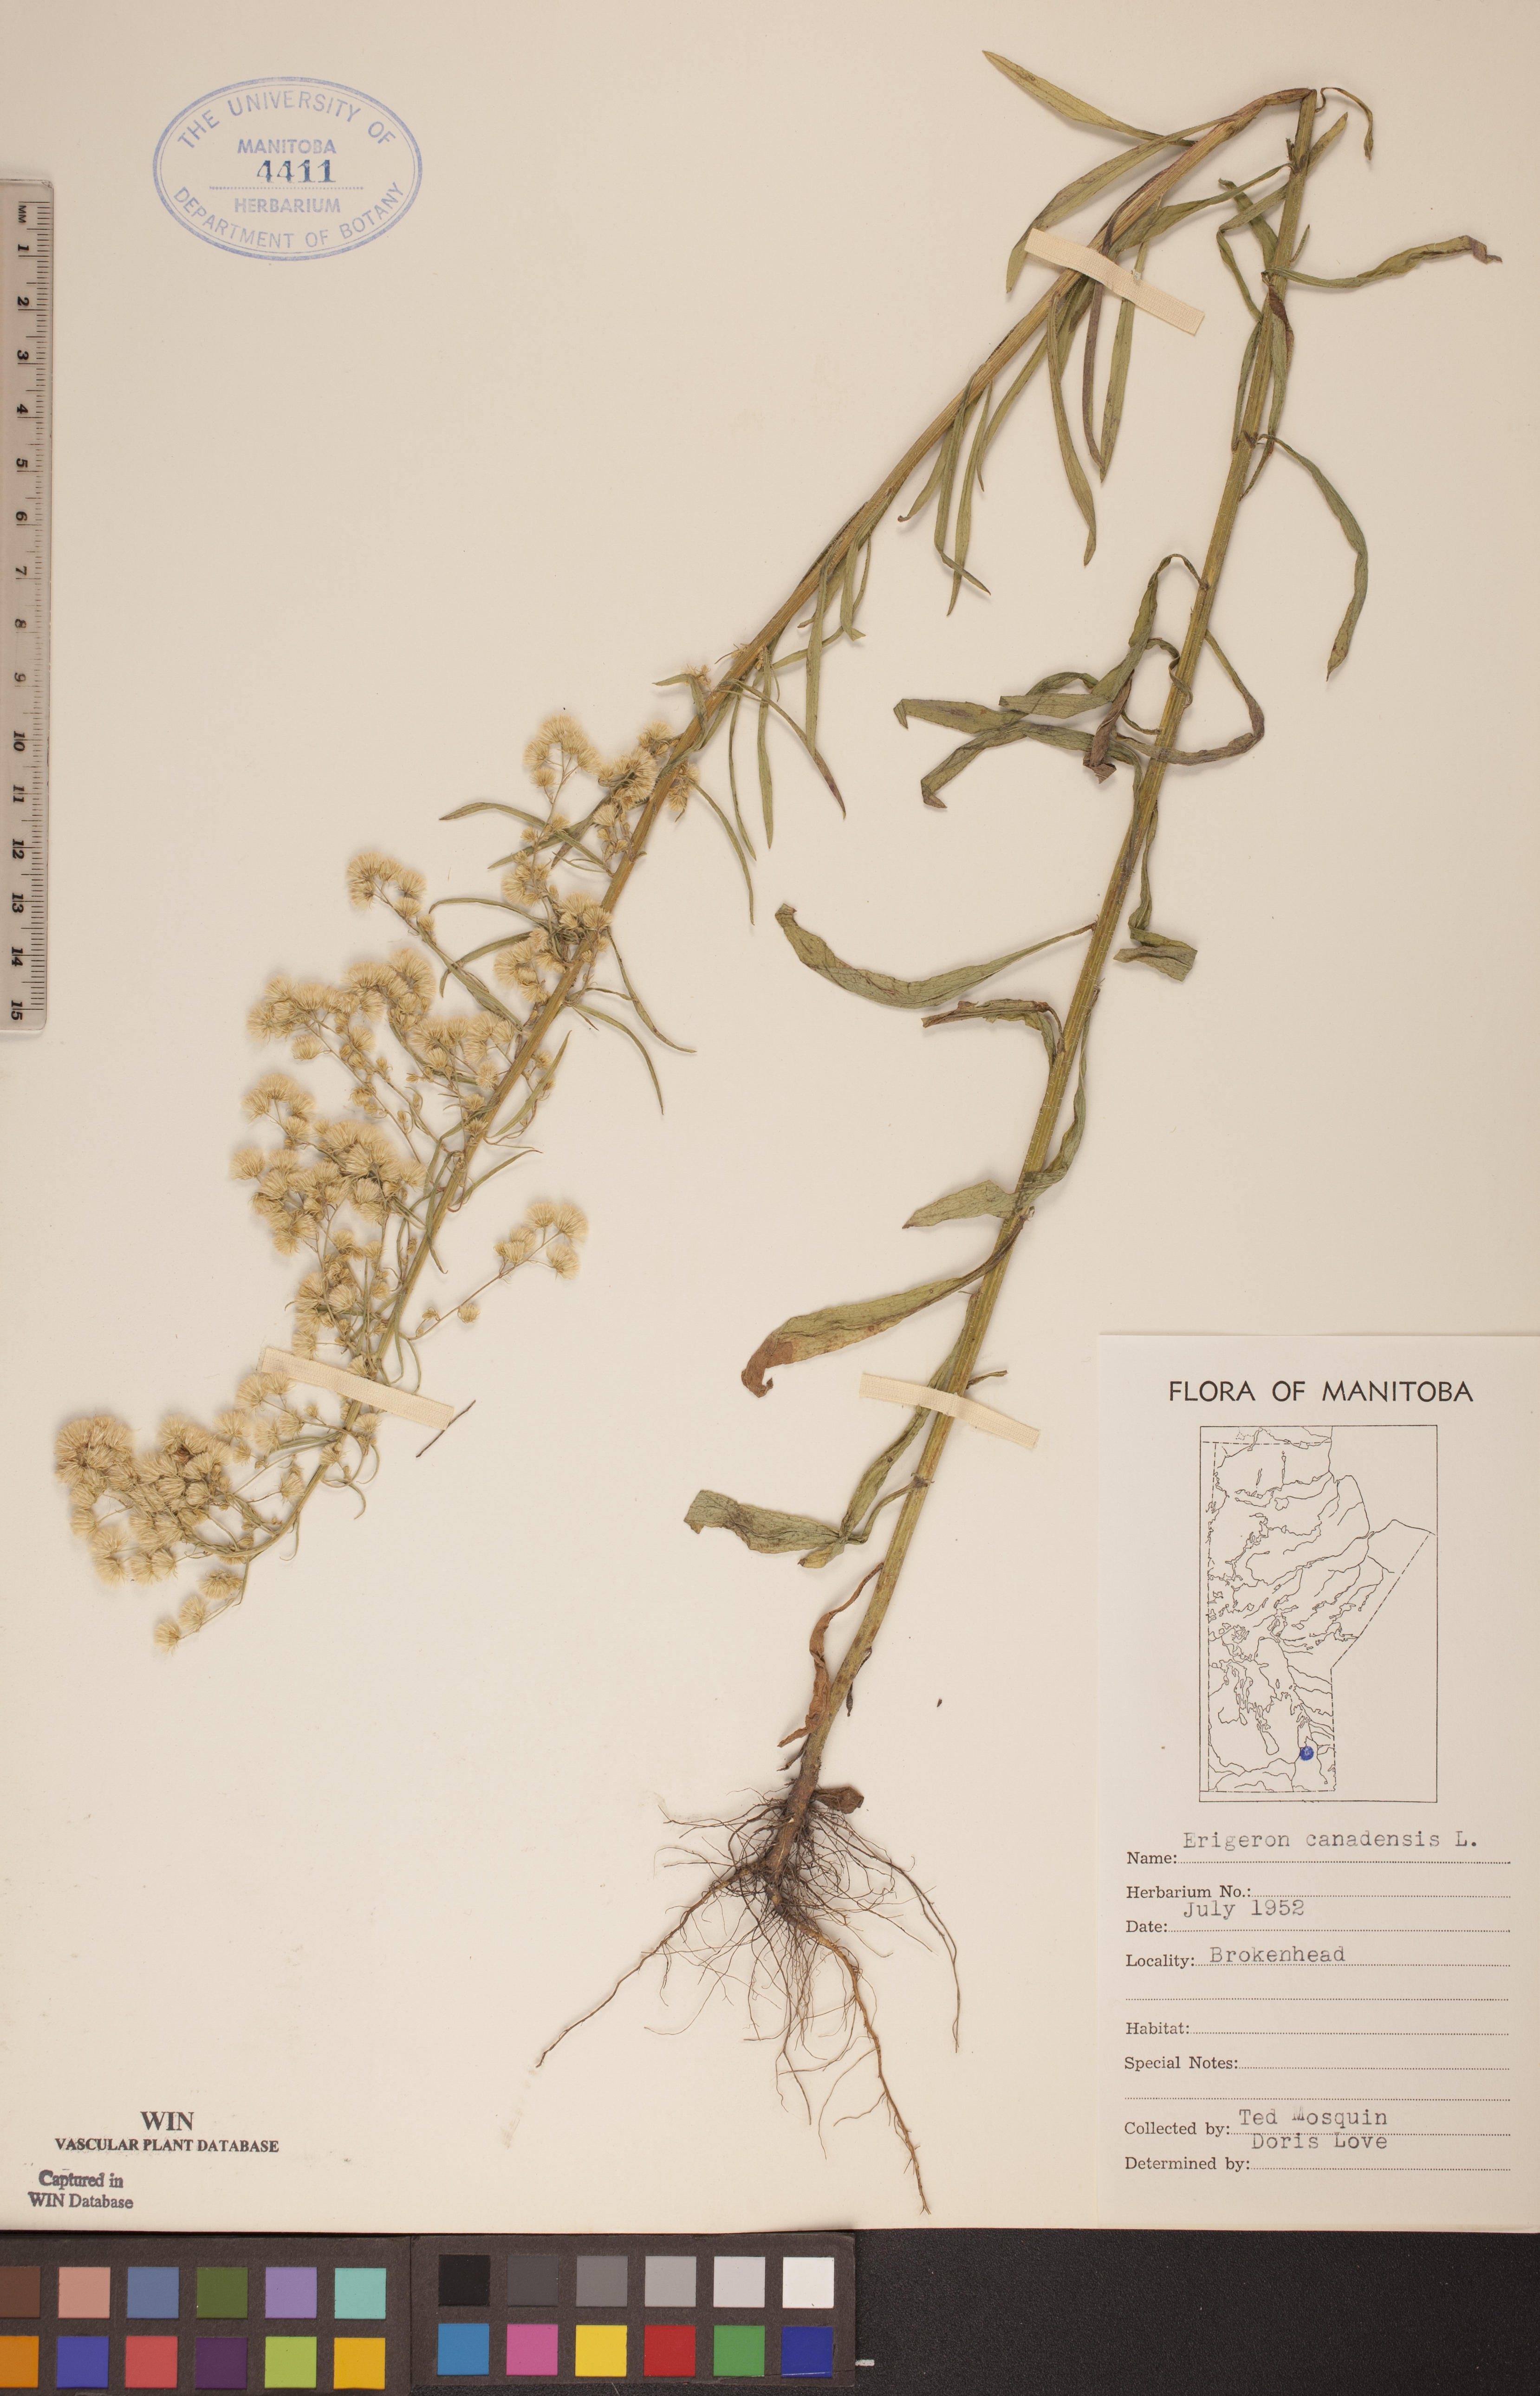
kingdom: Plantae
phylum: Tracheophyta
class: Magnoliopsida
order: Asterales
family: Asteraceae
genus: Erigeron
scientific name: Erigeron canadensis
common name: Canadian fleabane
